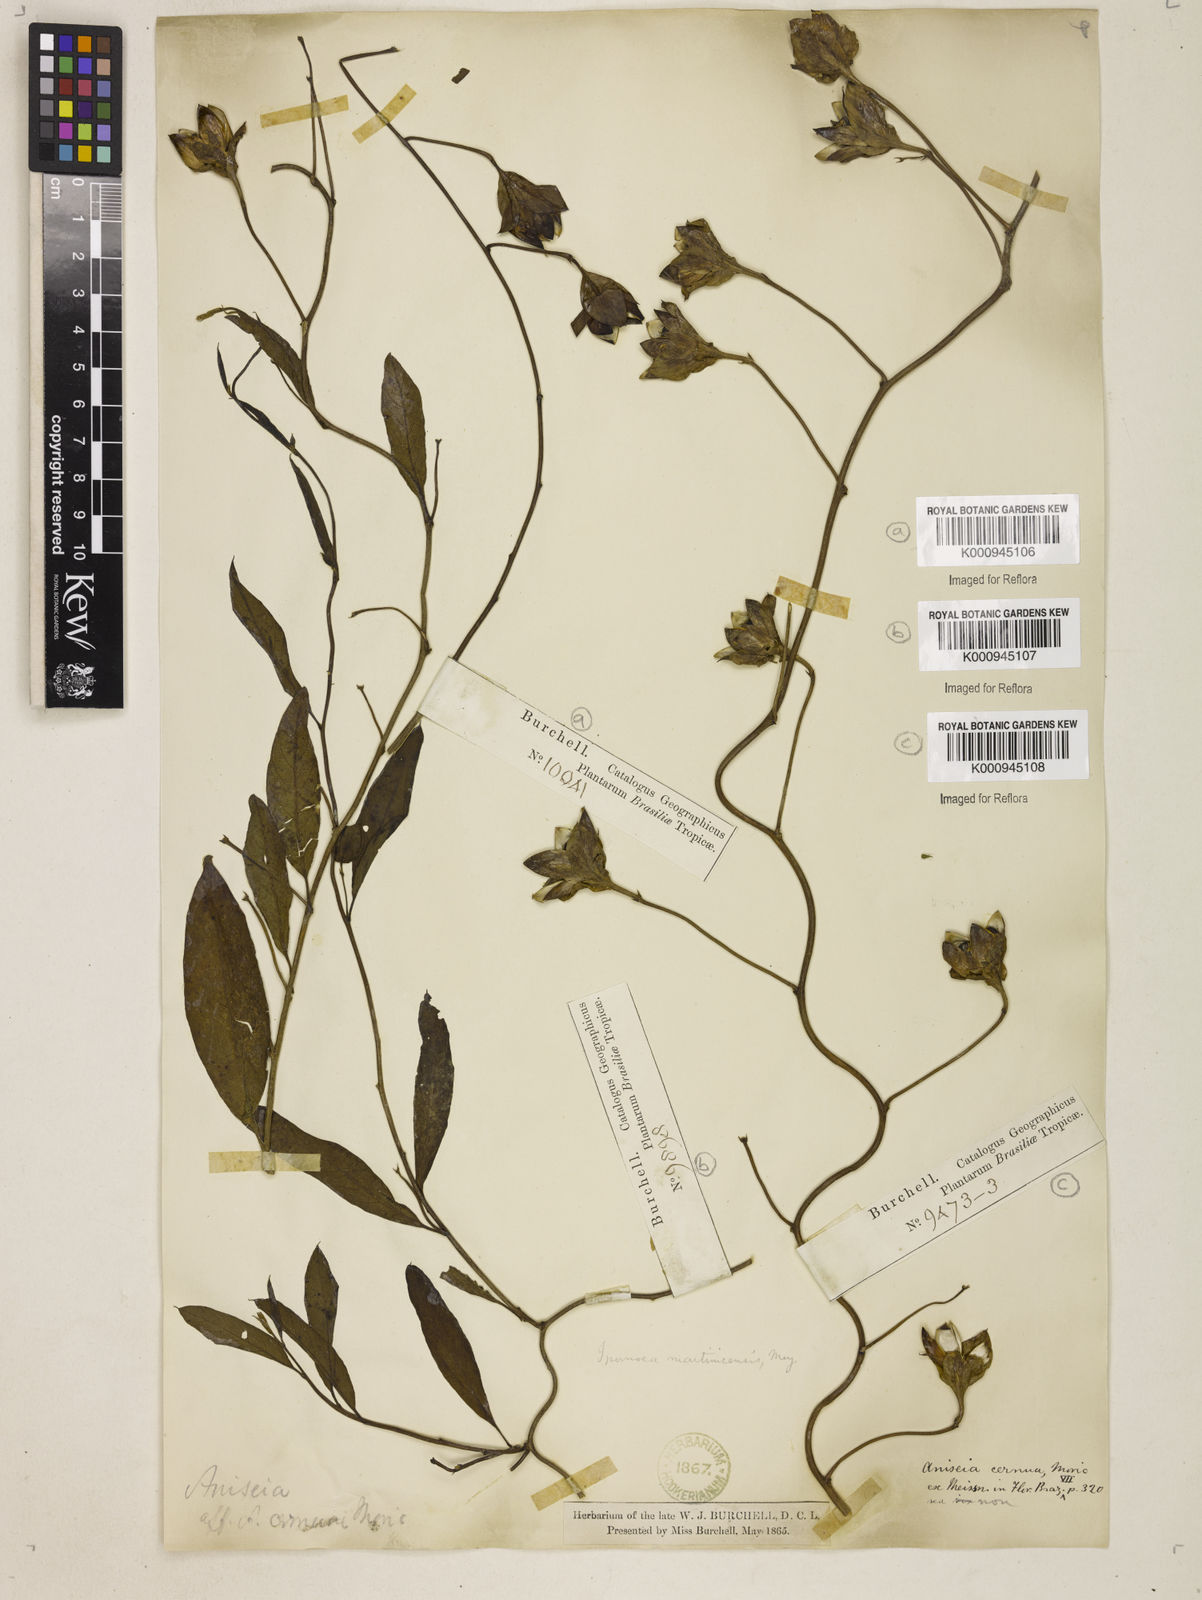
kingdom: Plantae
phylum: Tracheophyta
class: Magnoliopsida
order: Solanales
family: Convolvulaceae
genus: Aniseia
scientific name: Aniseia martinicensis
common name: Kulayadambu
